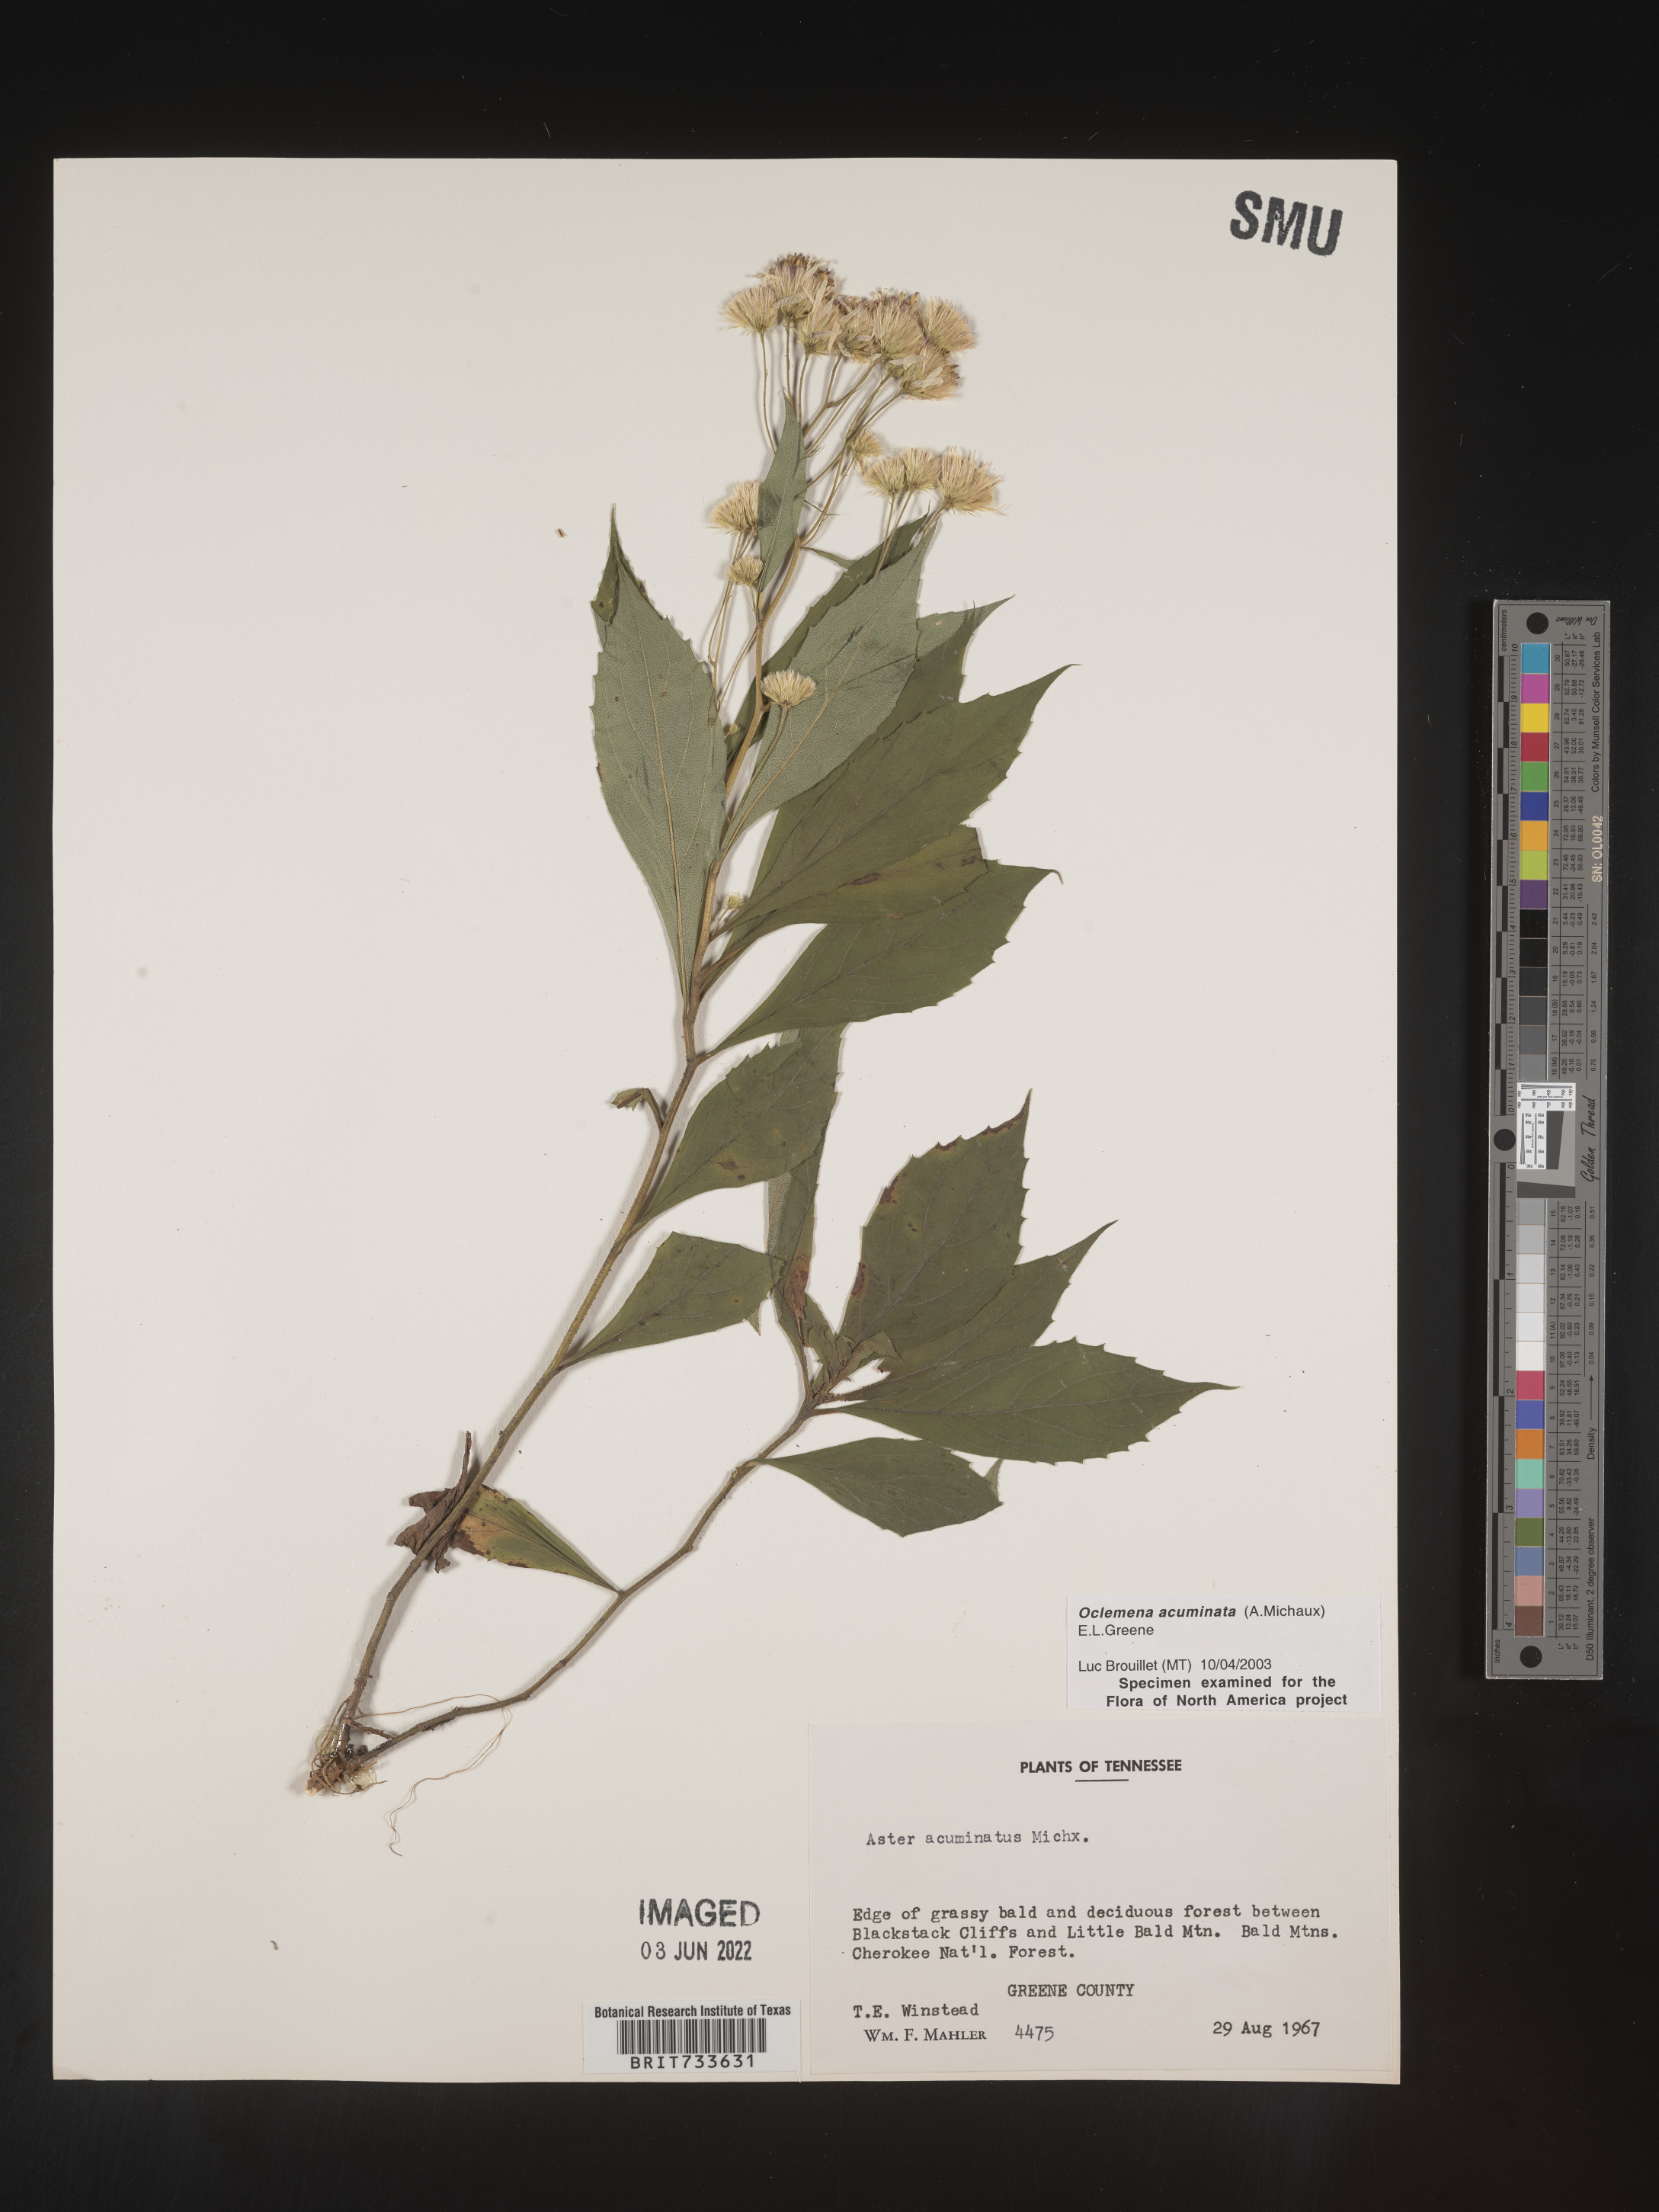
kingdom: Plantae
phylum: Tracheophyta
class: Magnoliopsida
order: Asterales
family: Asteraceae
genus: Oclemena
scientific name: Oclemena acuminata
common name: Mountain aster
